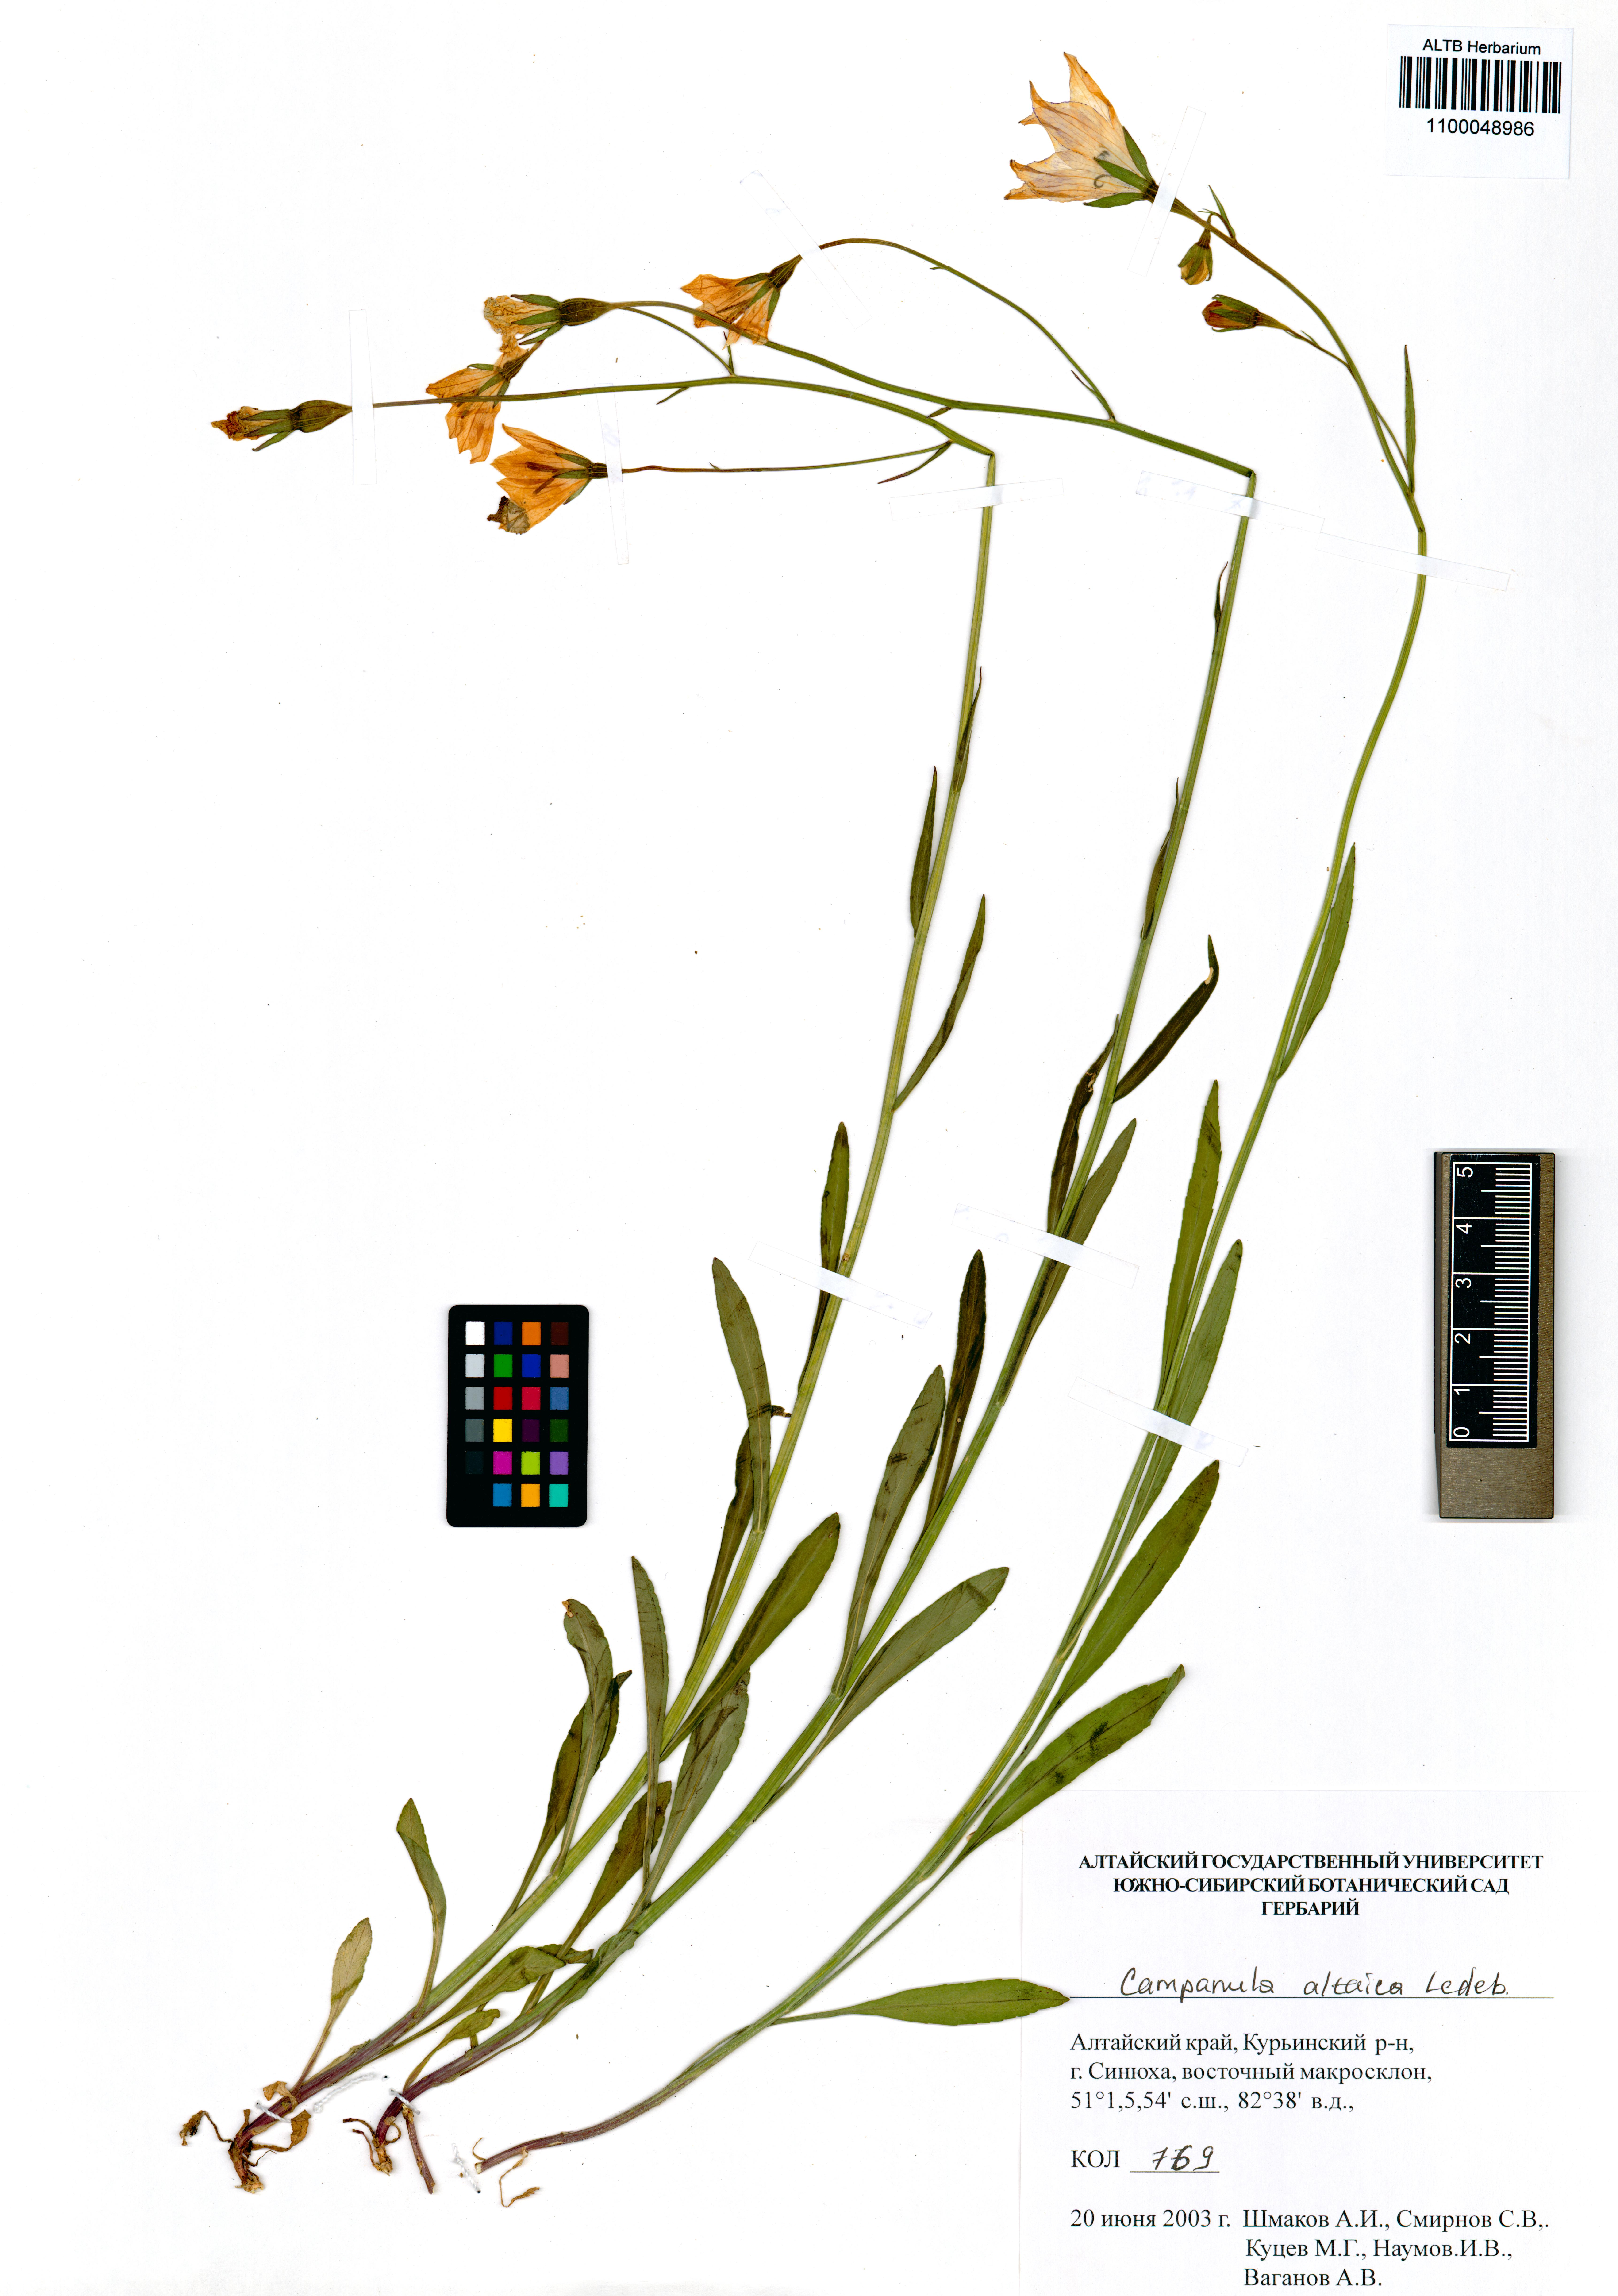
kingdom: Plantae
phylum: Tracheophyta
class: Magnoliopsida
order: Asterales
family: Campanulaceae
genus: Campanula
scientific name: Campanula stevenii
